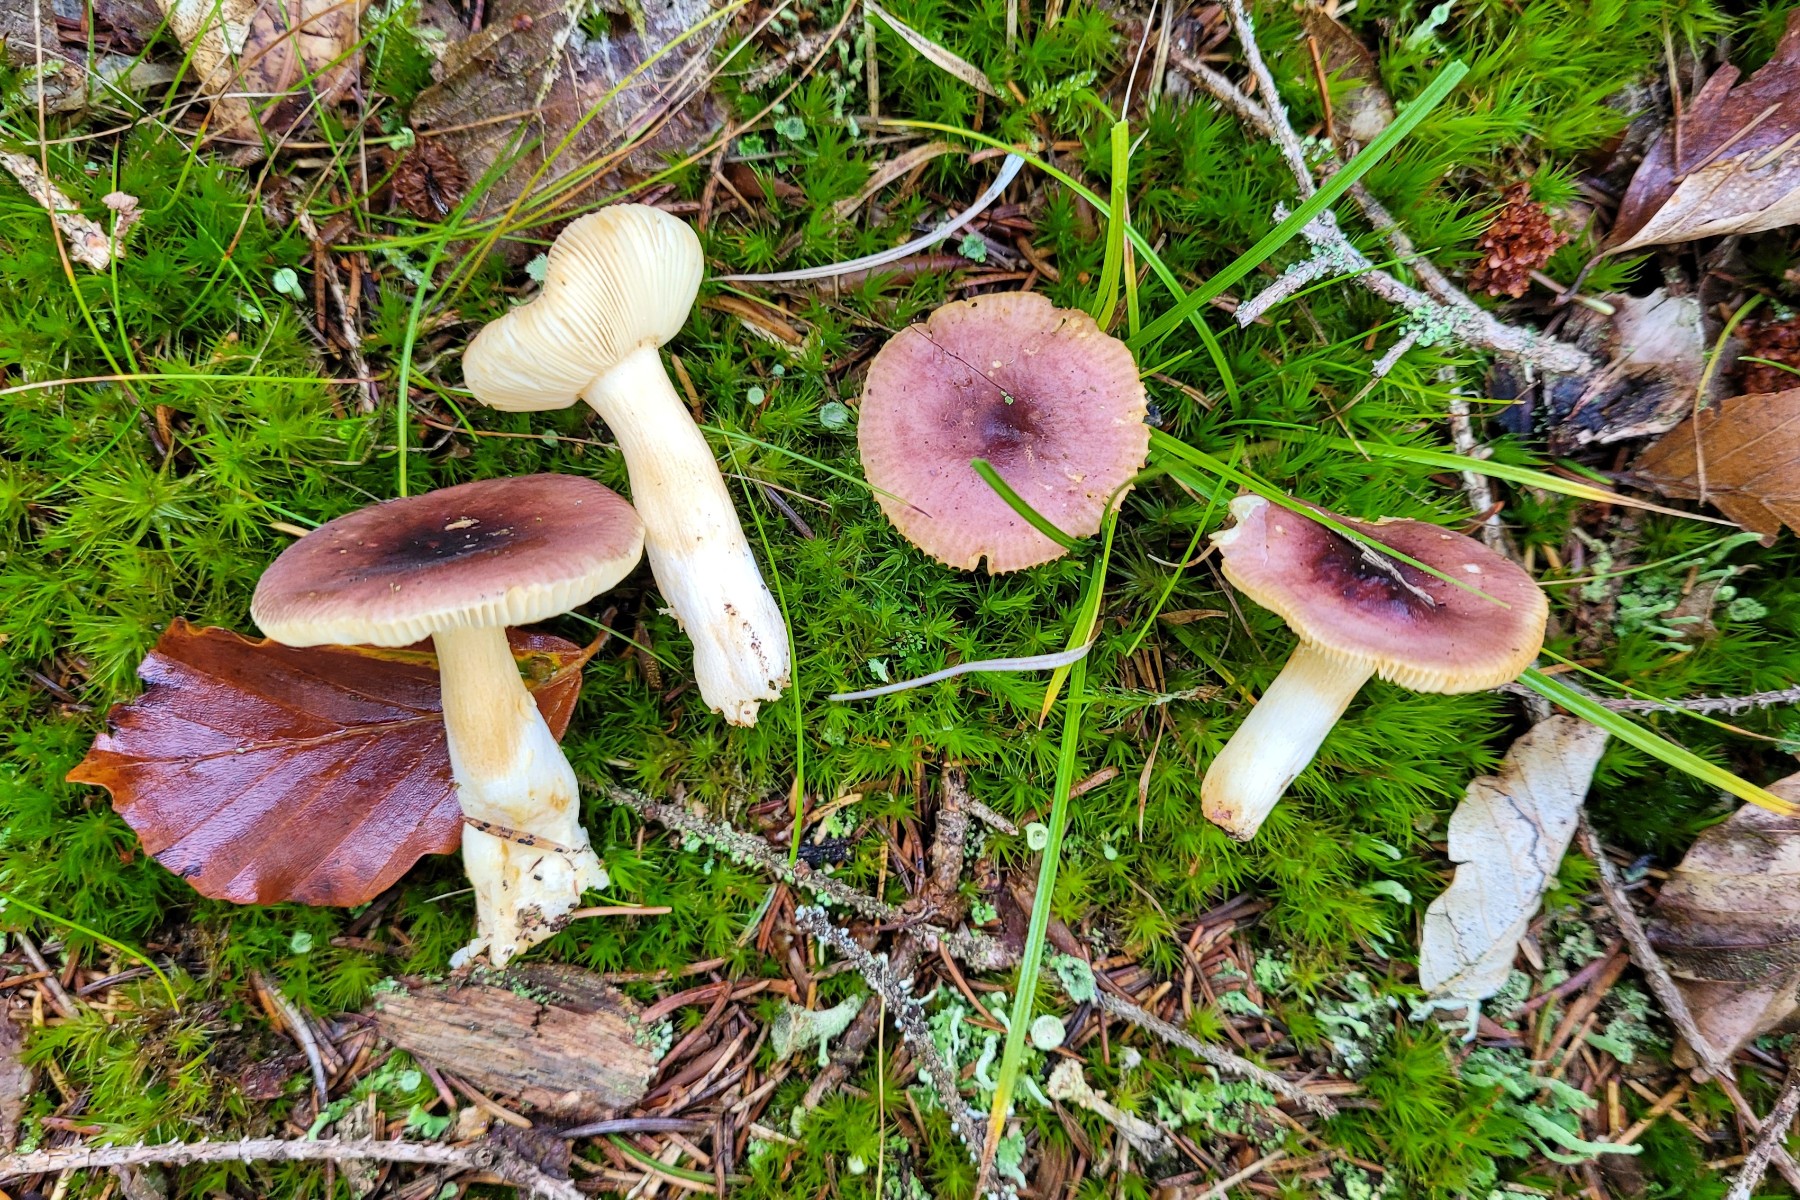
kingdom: Fungi
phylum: Basidiomycota
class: Agaricomycetes
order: Russulales
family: Russulaceae
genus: Russula
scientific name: Russula puellaris
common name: gulstokket skørhat
